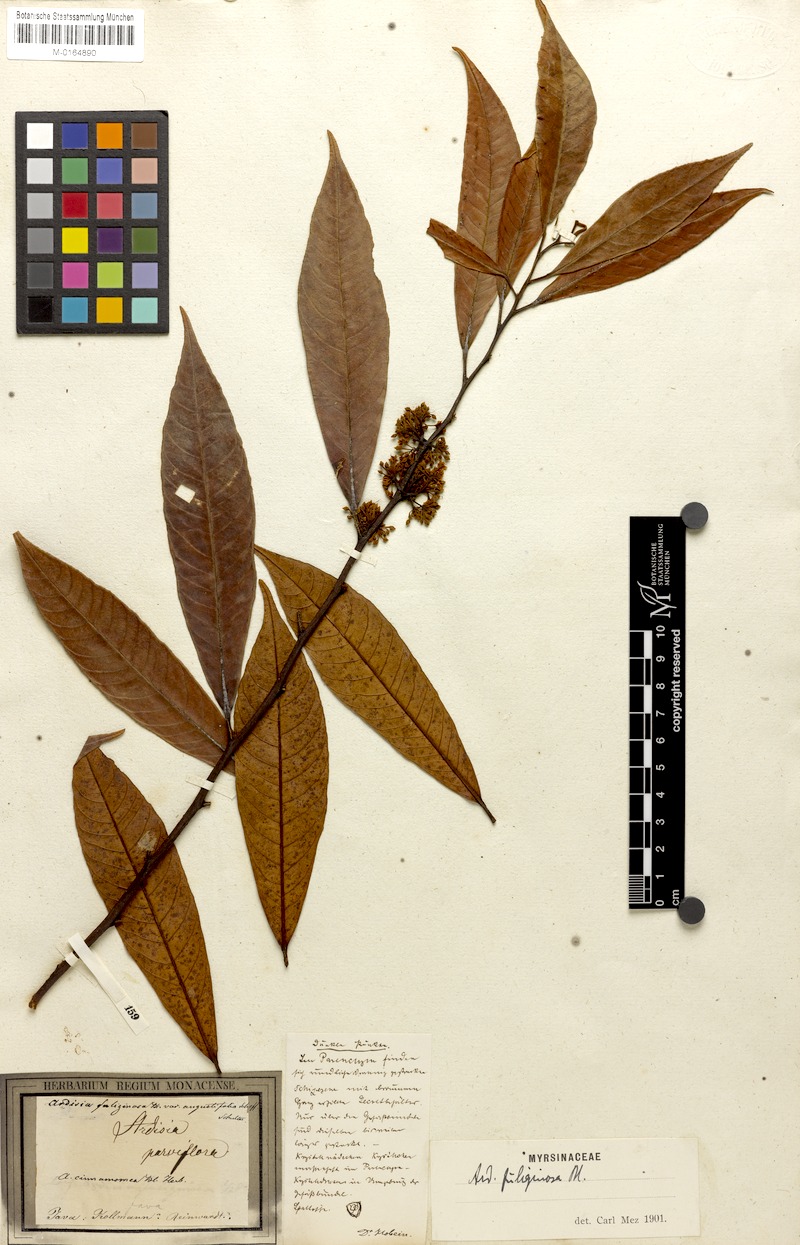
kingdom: Plantae
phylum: Tracheophyta
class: Magnoliopsida
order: Ericales
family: Primulaceae
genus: Ardisia
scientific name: Ardisia fuliginosa
